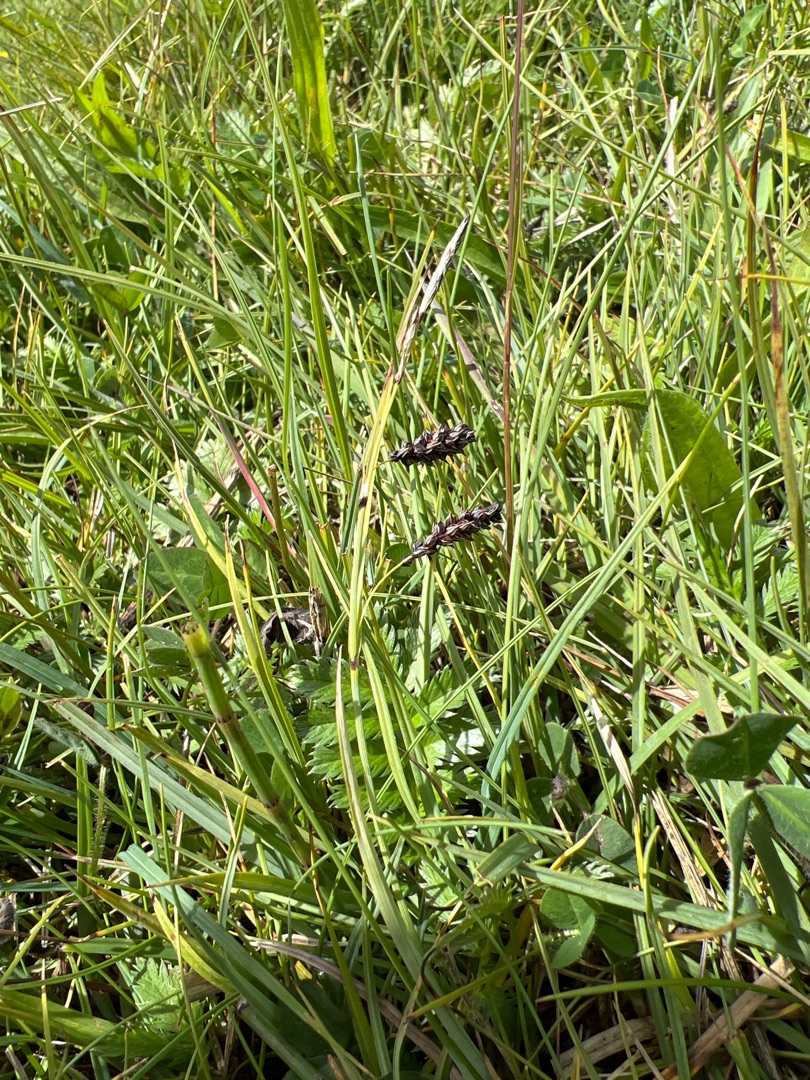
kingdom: Plantae
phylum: Tracheophyta
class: Liliopsida
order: Poales
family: Cyperaceae
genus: Carex
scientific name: Carex flacca
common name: Blågrøn star
